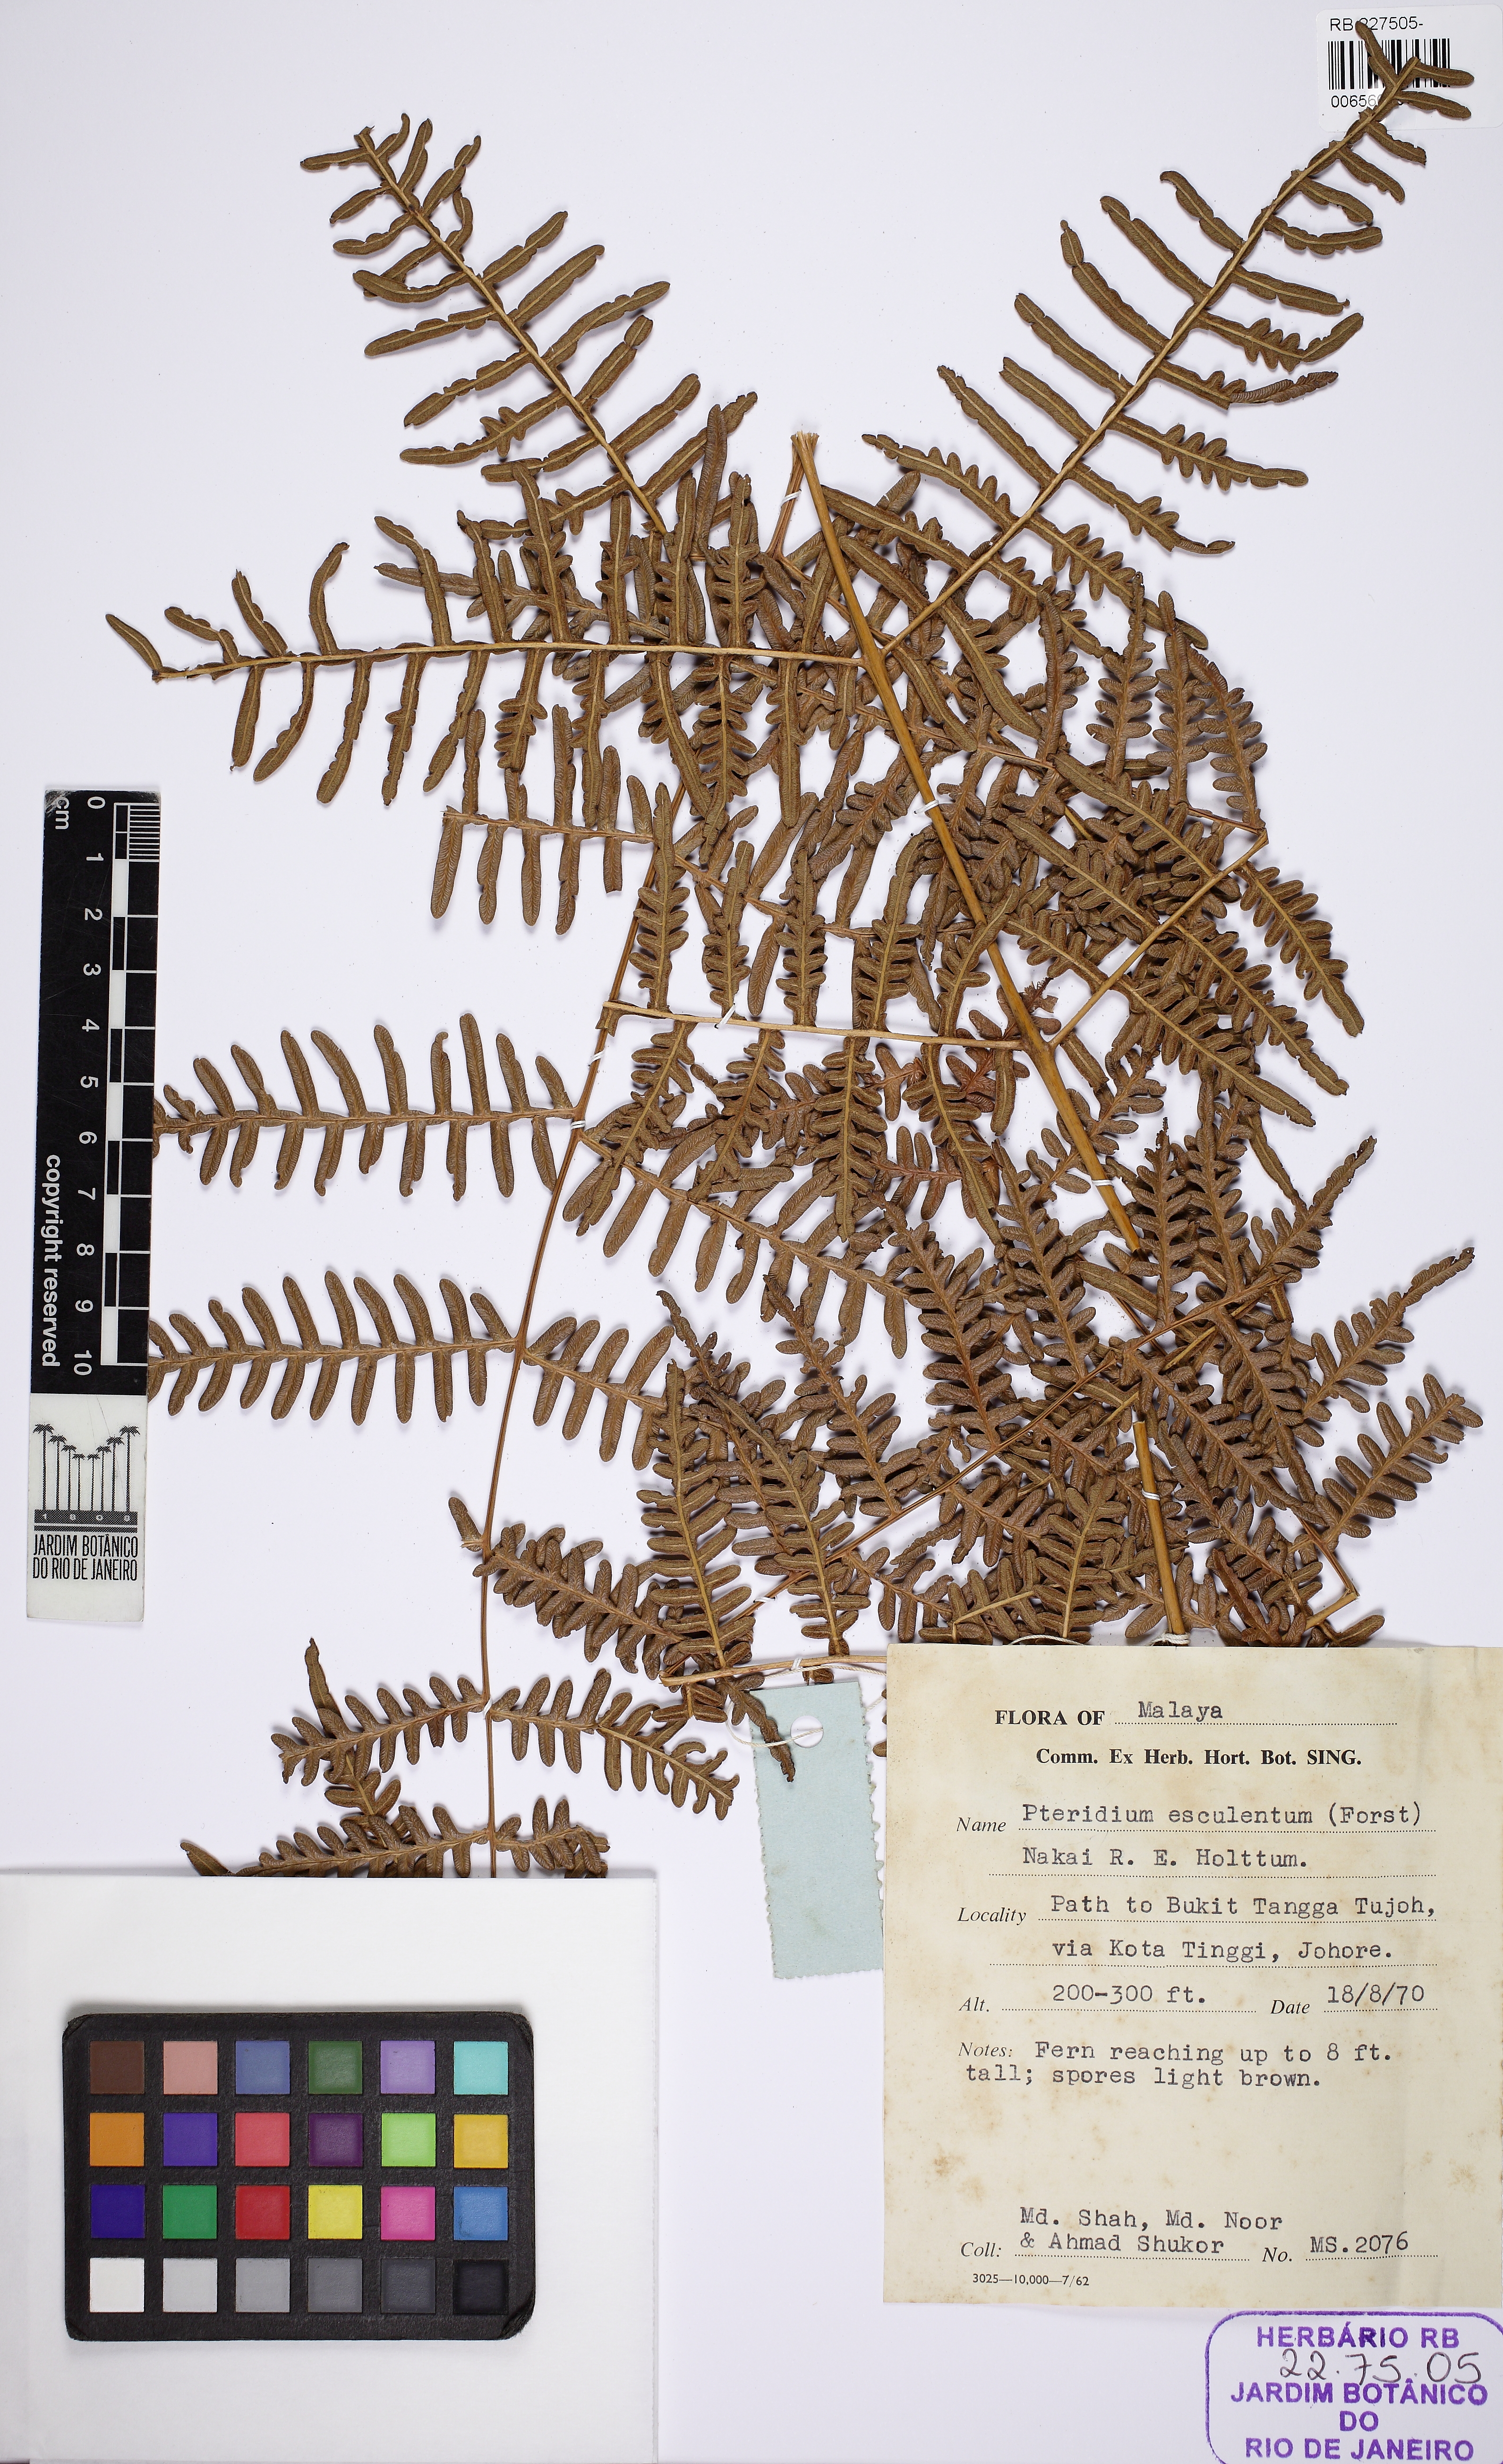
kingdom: Plantae
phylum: Tracheophyta
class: Polypodiopsida
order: Polypodiales
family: Dennstaedtiaceae
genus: Pteridium
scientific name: Pteridium esculentum
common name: Bracken fern
